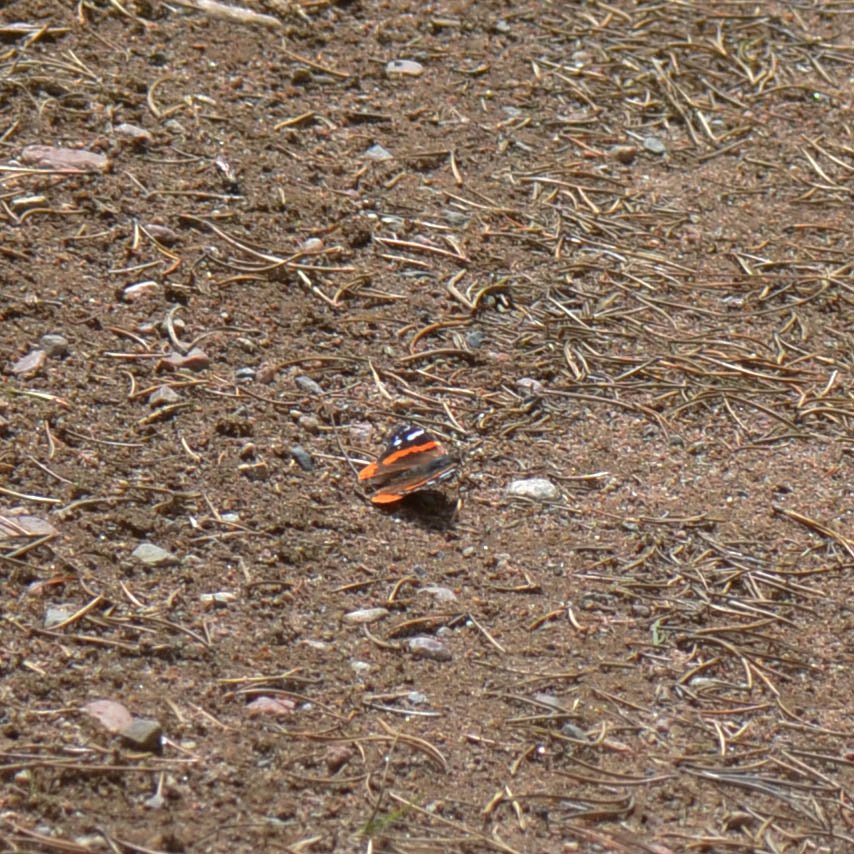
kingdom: Animalia
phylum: Arthropoda
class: Insecta
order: Lepidoptera
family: Nymphalidae
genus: Vanessa
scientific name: Vanessa atalanta
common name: Red Admiral
